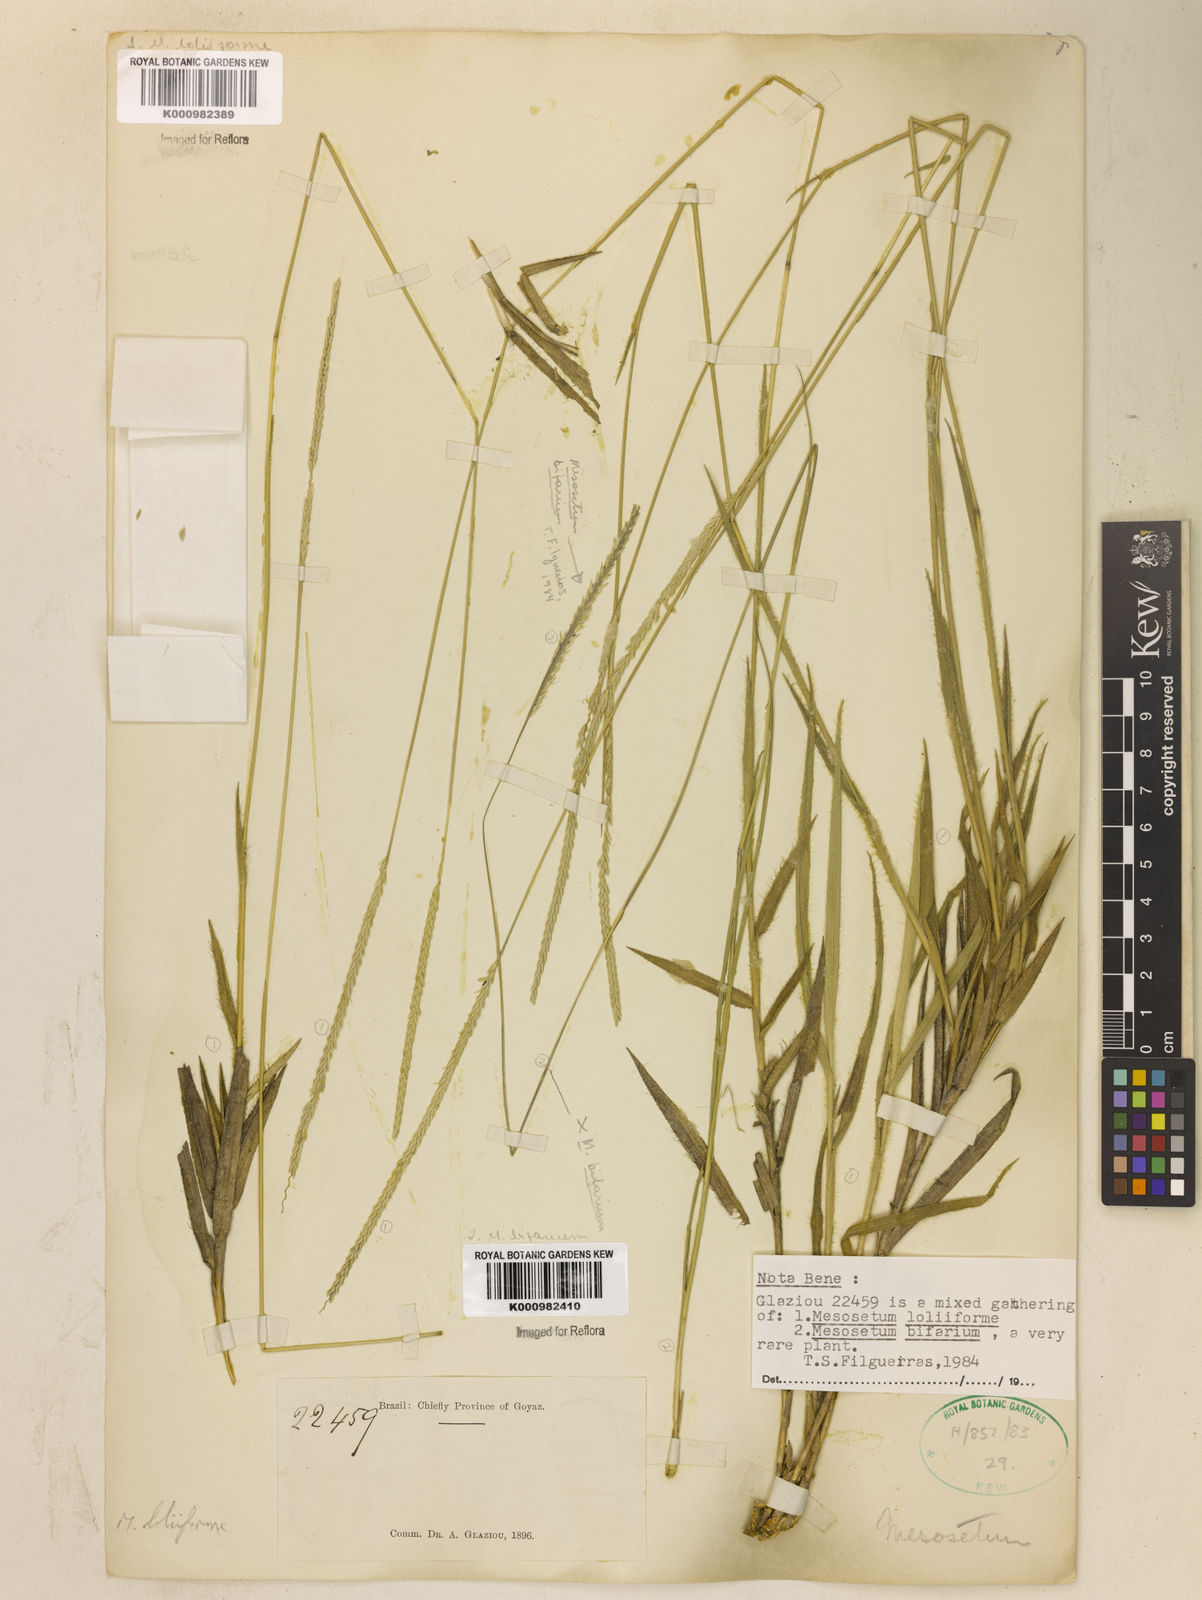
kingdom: Plantae
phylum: Tracheophyta
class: Liliopsida
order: Poales
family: Poaceae
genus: Mesosetum
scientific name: Mesosetum
